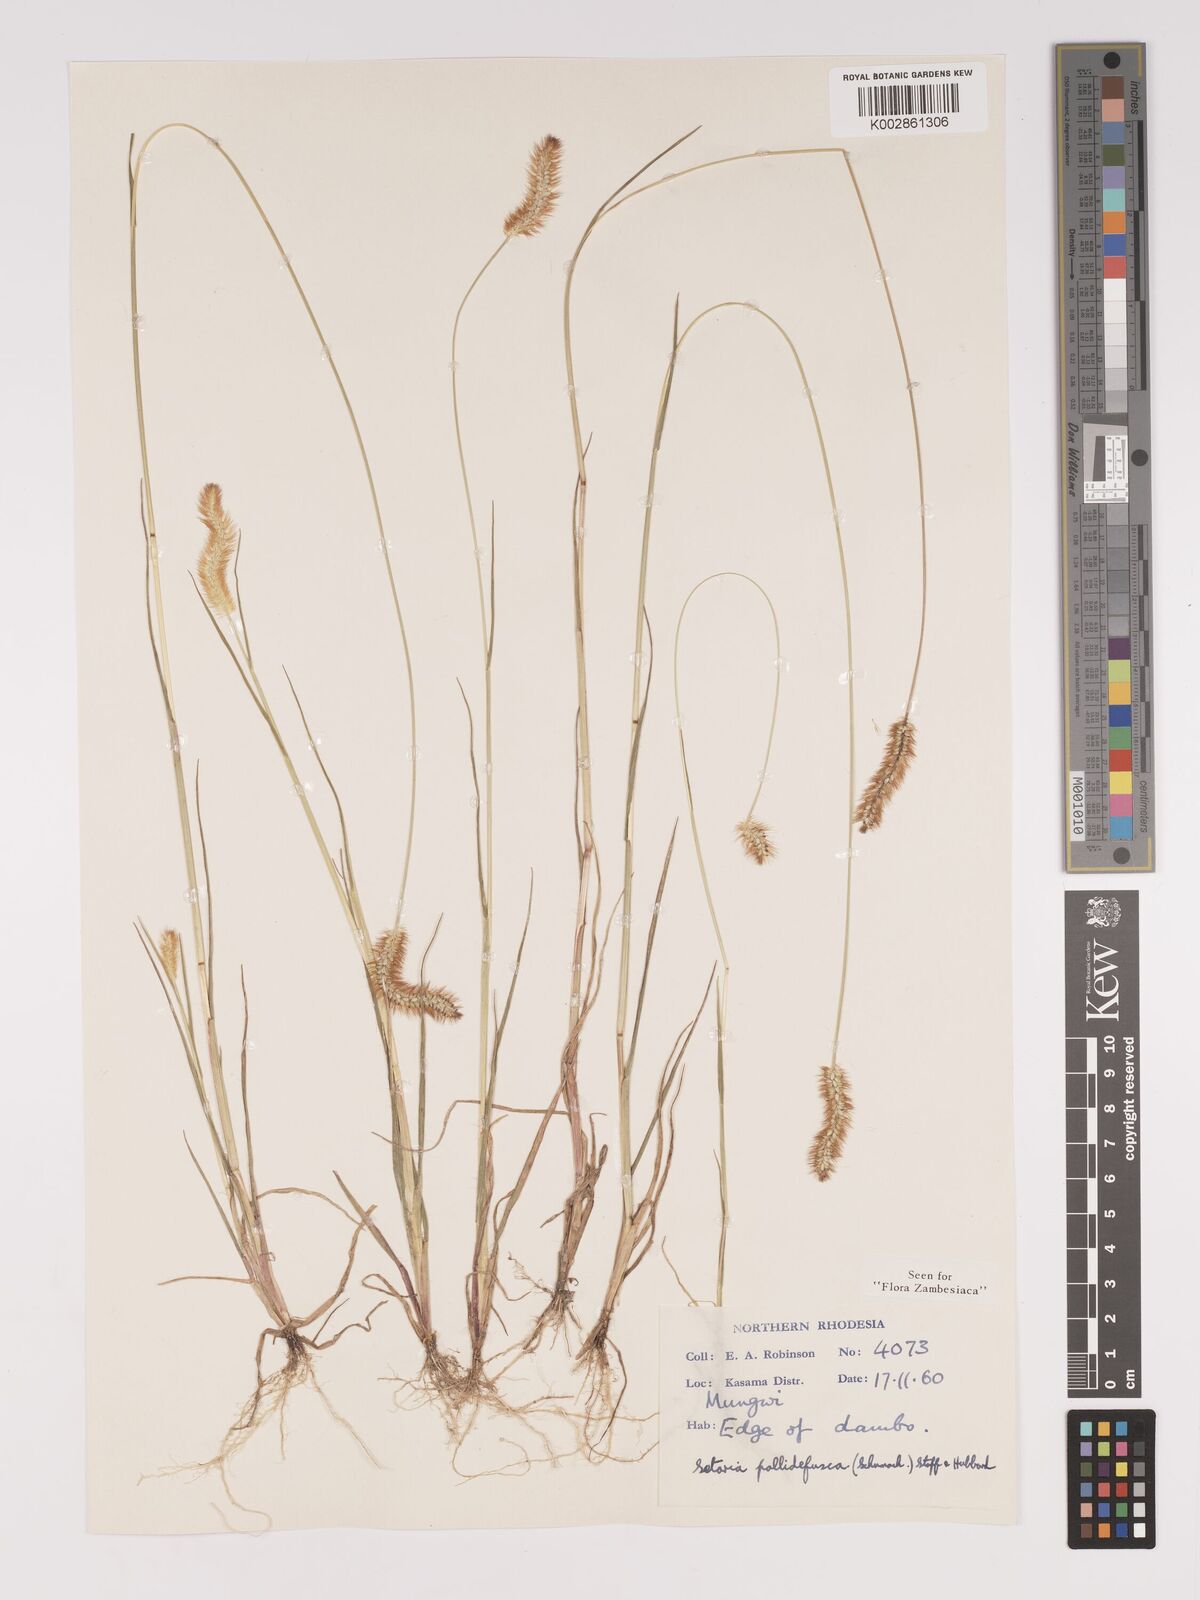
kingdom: Plantae
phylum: Tracheophyta
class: Liliopsida
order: Poales
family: Poaceae
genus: Setaria
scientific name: Setaria pumila
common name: Yellow bristle-grass
